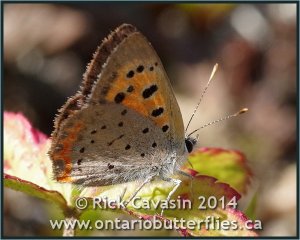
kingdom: Animalia
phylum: Arthropoda
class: Insecta
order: Lepidoptera
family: Lycaenidae
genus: Lycaena
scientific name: Lycaena phlaeas
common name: American Copper
